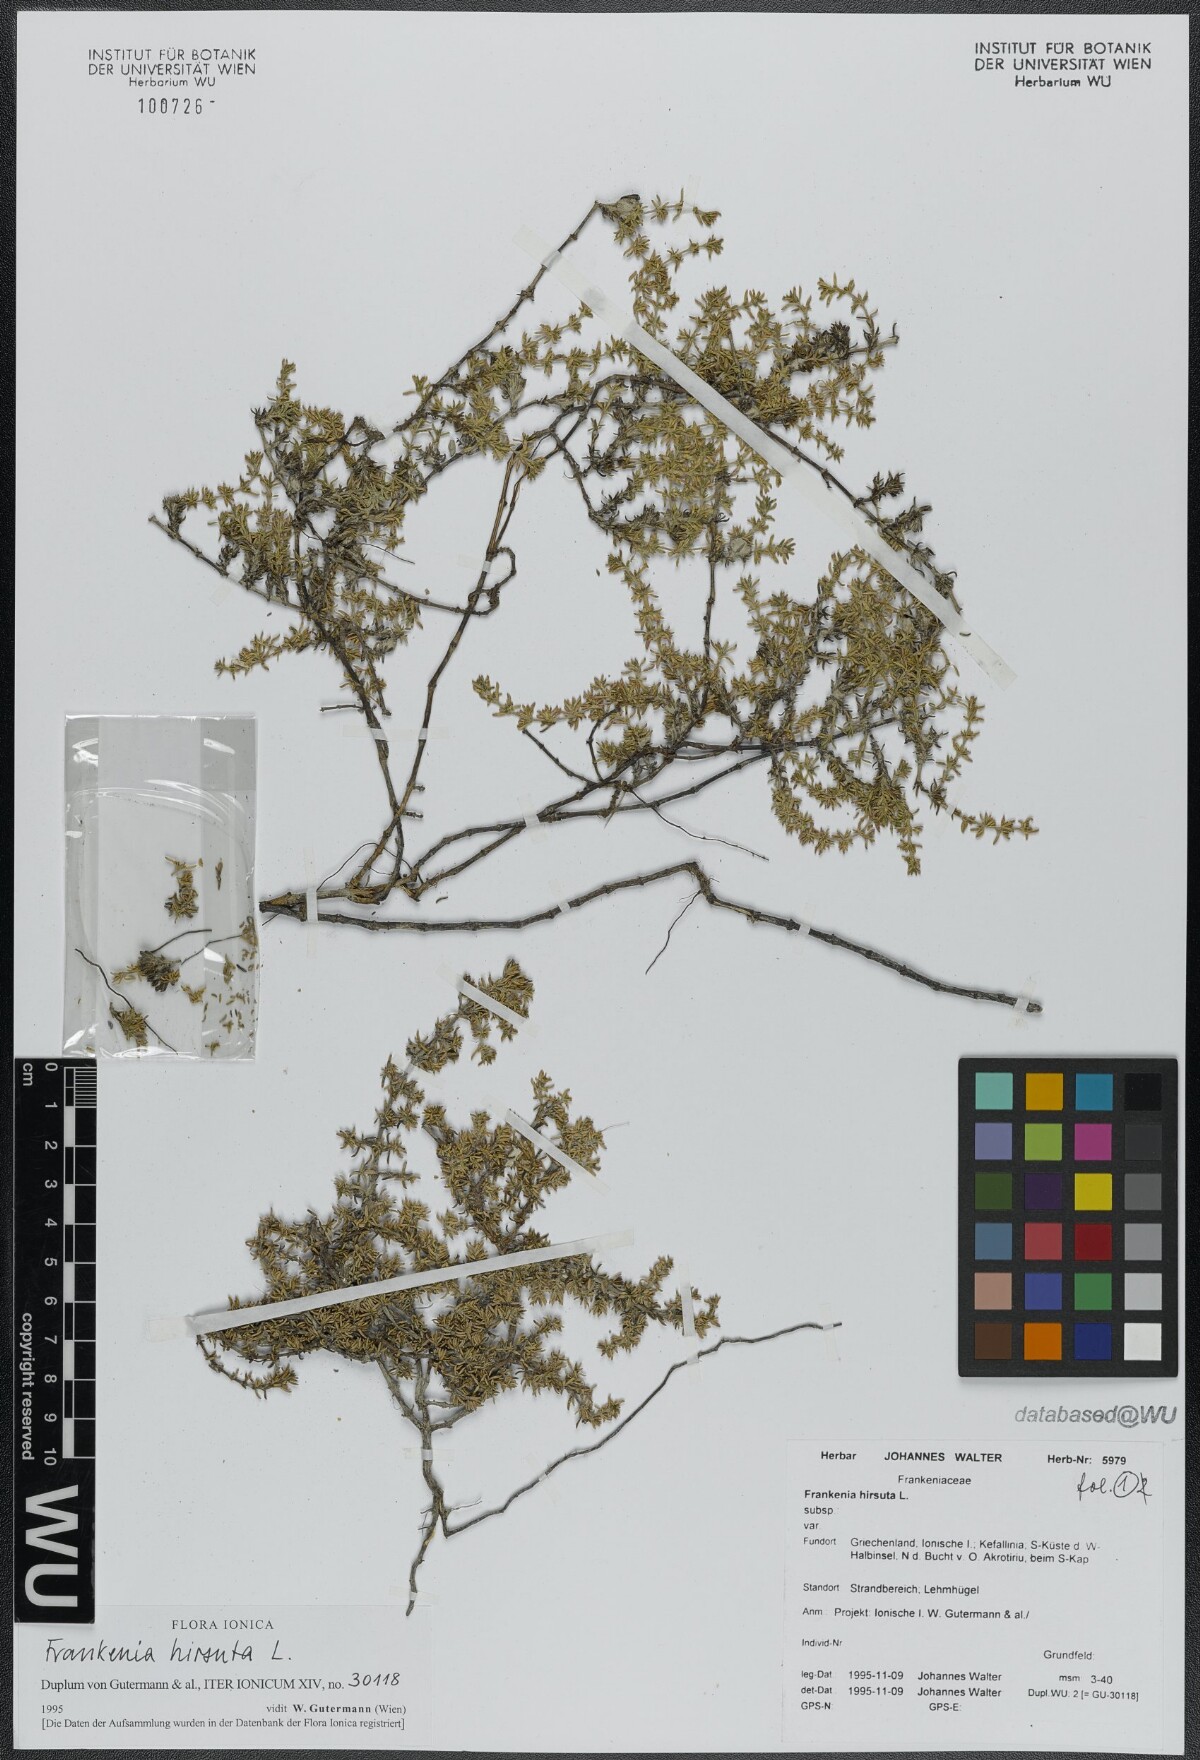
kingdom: Plantae
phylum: Tracheophyta
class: Magnoliopsida
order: Caryophyllales
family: Frankeniaceae
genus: Frankenia
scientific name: Frankenia hirsuta
